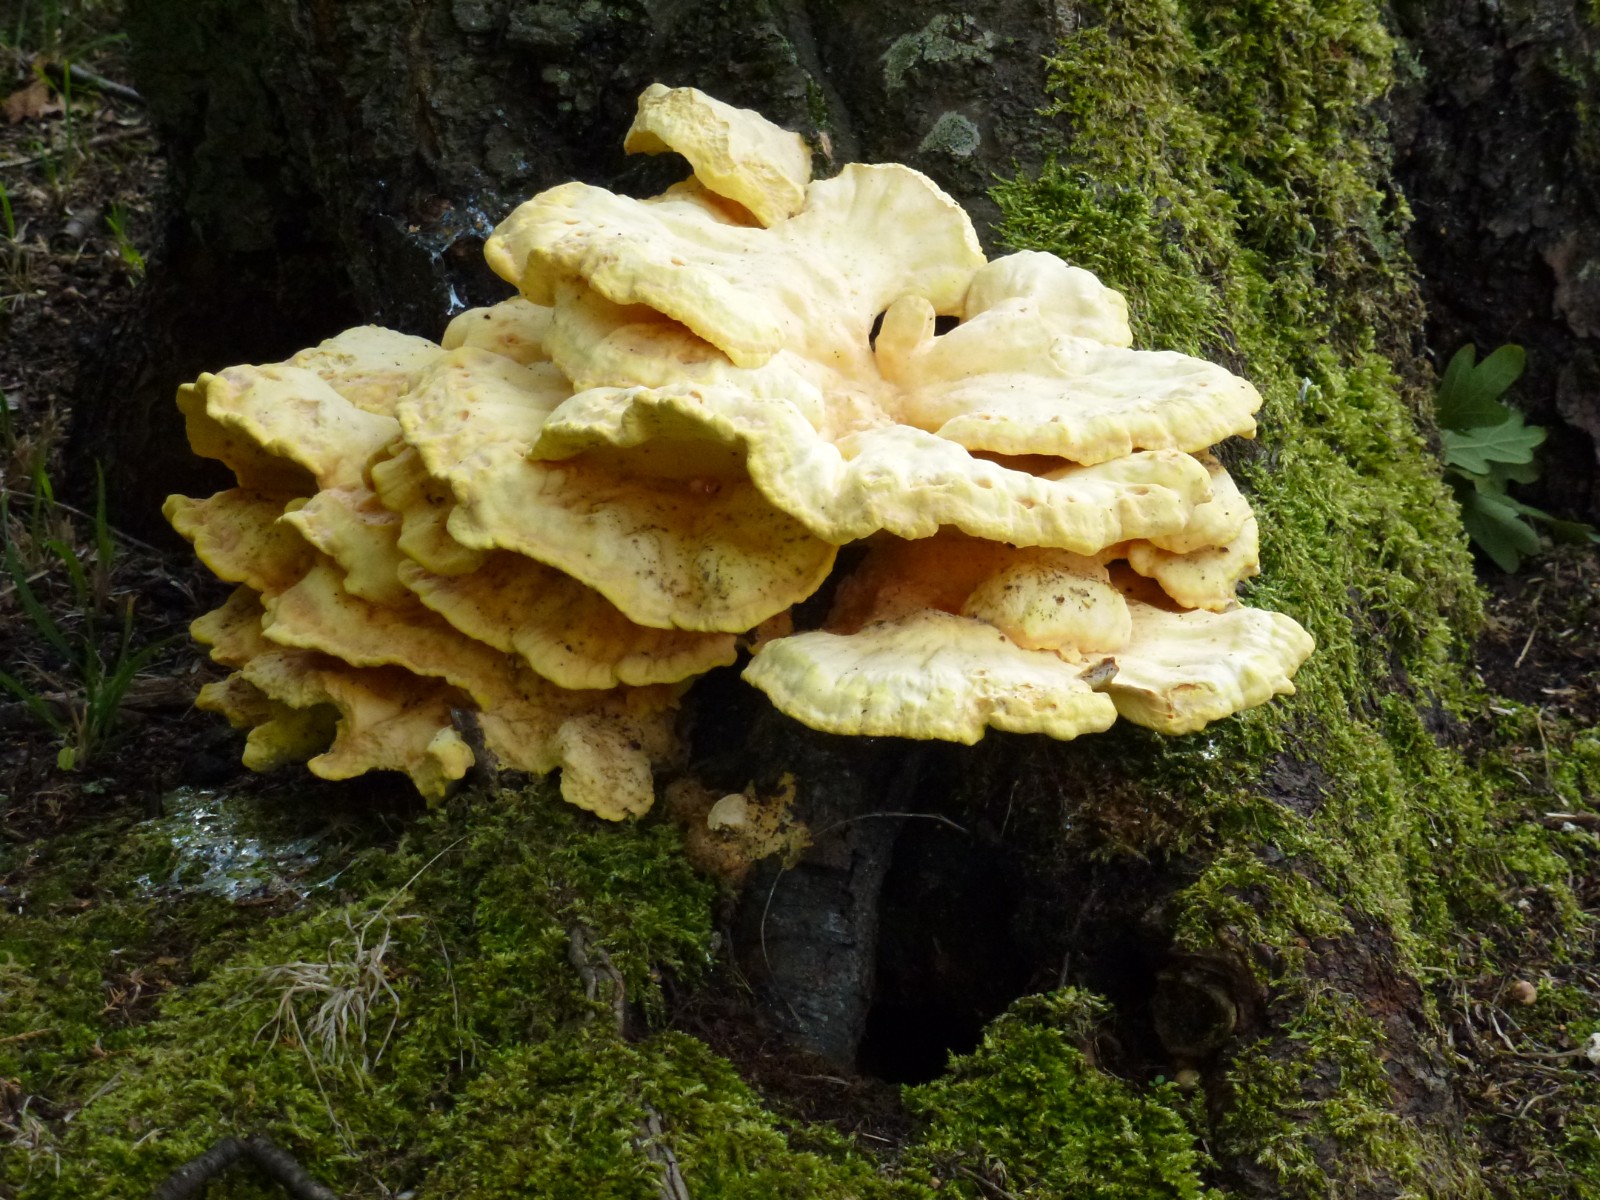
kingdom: Fungi
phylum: Basidiomycota
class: Agaricomycetes
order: Polyporales
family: Laetiporaceae
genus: Laetiporus
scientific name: Laetiporus sulphureus
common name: svovlporesvamp
